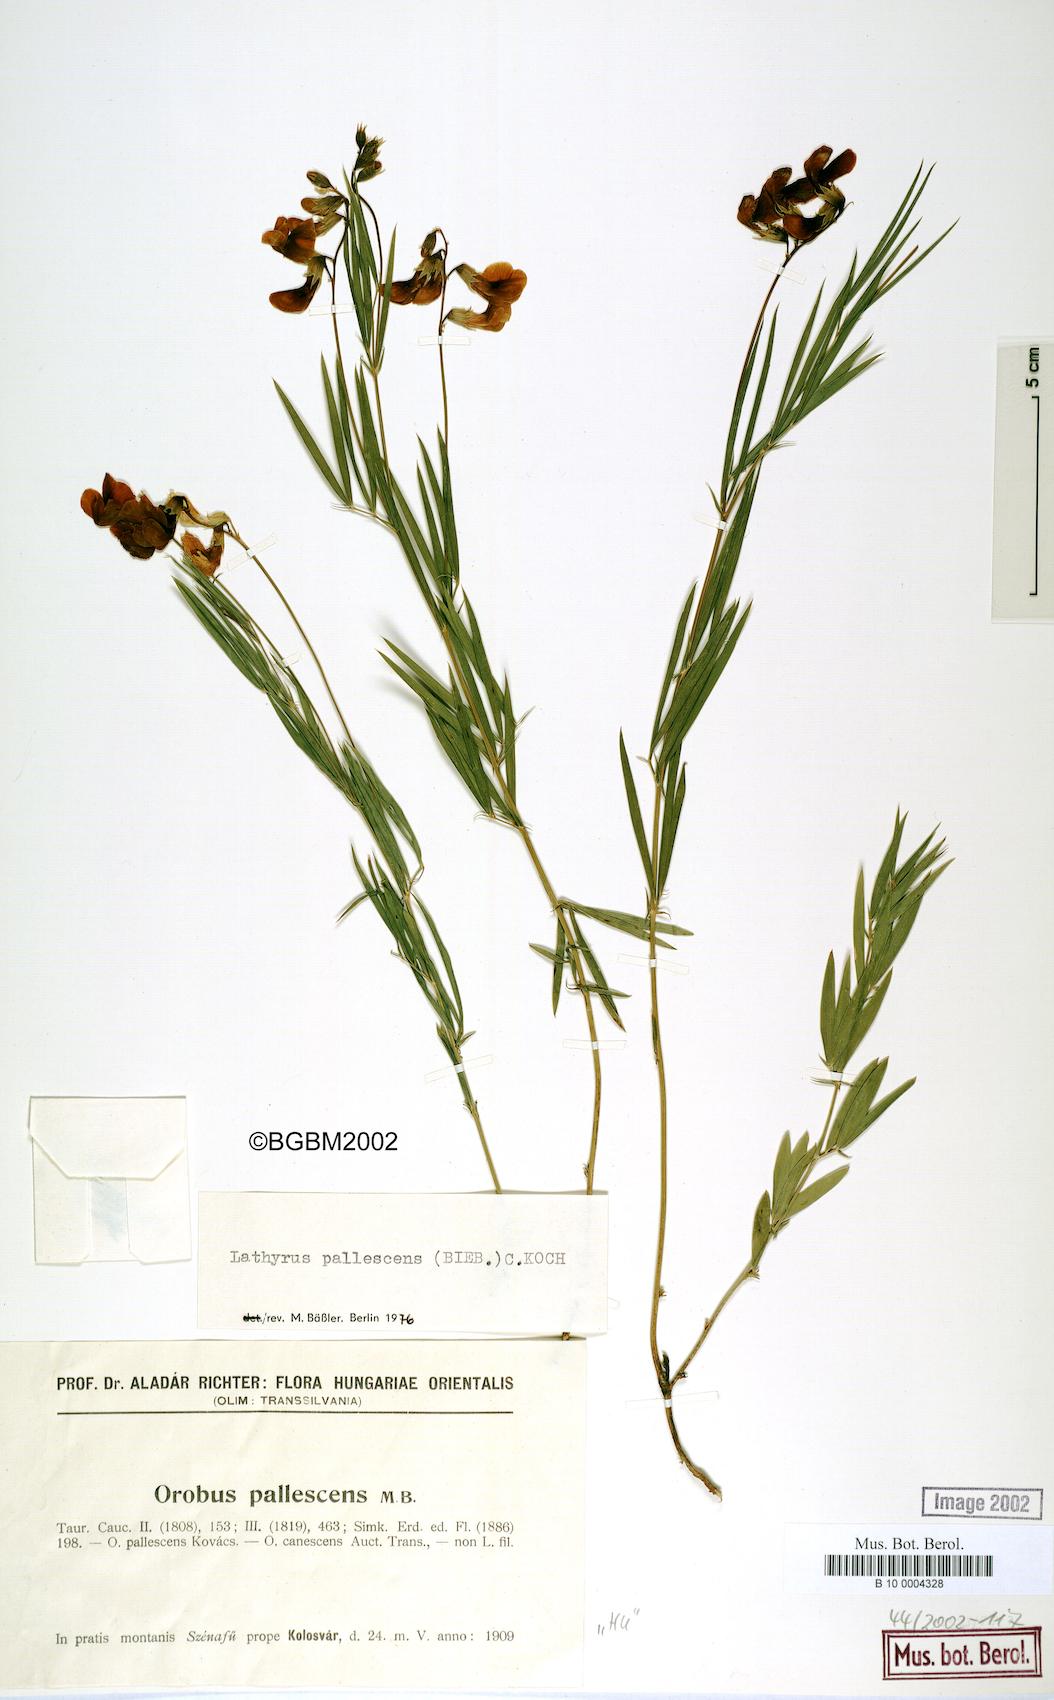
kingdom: Plantae
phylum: Tracheophyta
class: Magnoliopsida
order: Fabales
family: Fabaceae
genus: Lathyrus
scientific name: Lathyrus pallescens
